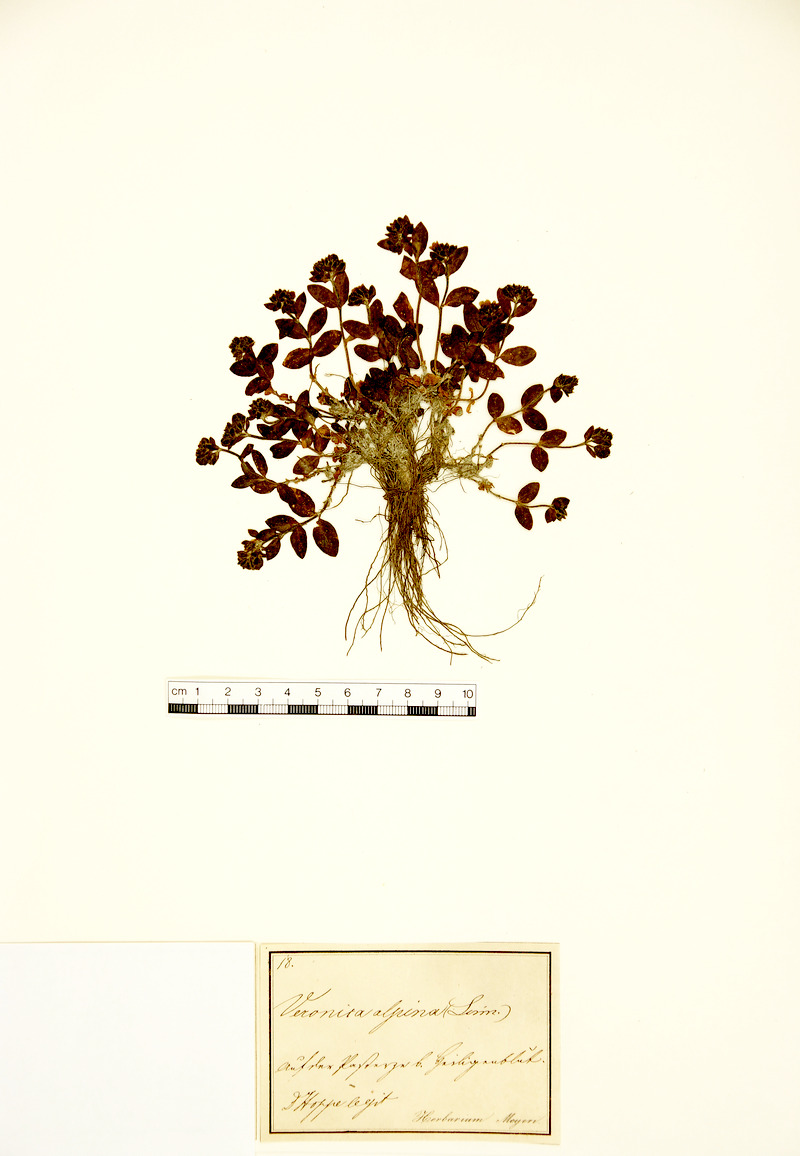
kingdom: Plantae
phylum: Tracheophyta
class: Magnoliopsida
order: Lamiales
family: Plantaginaceae
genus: Veronica
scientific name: Veronica alpina
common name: Alpine speedwell
